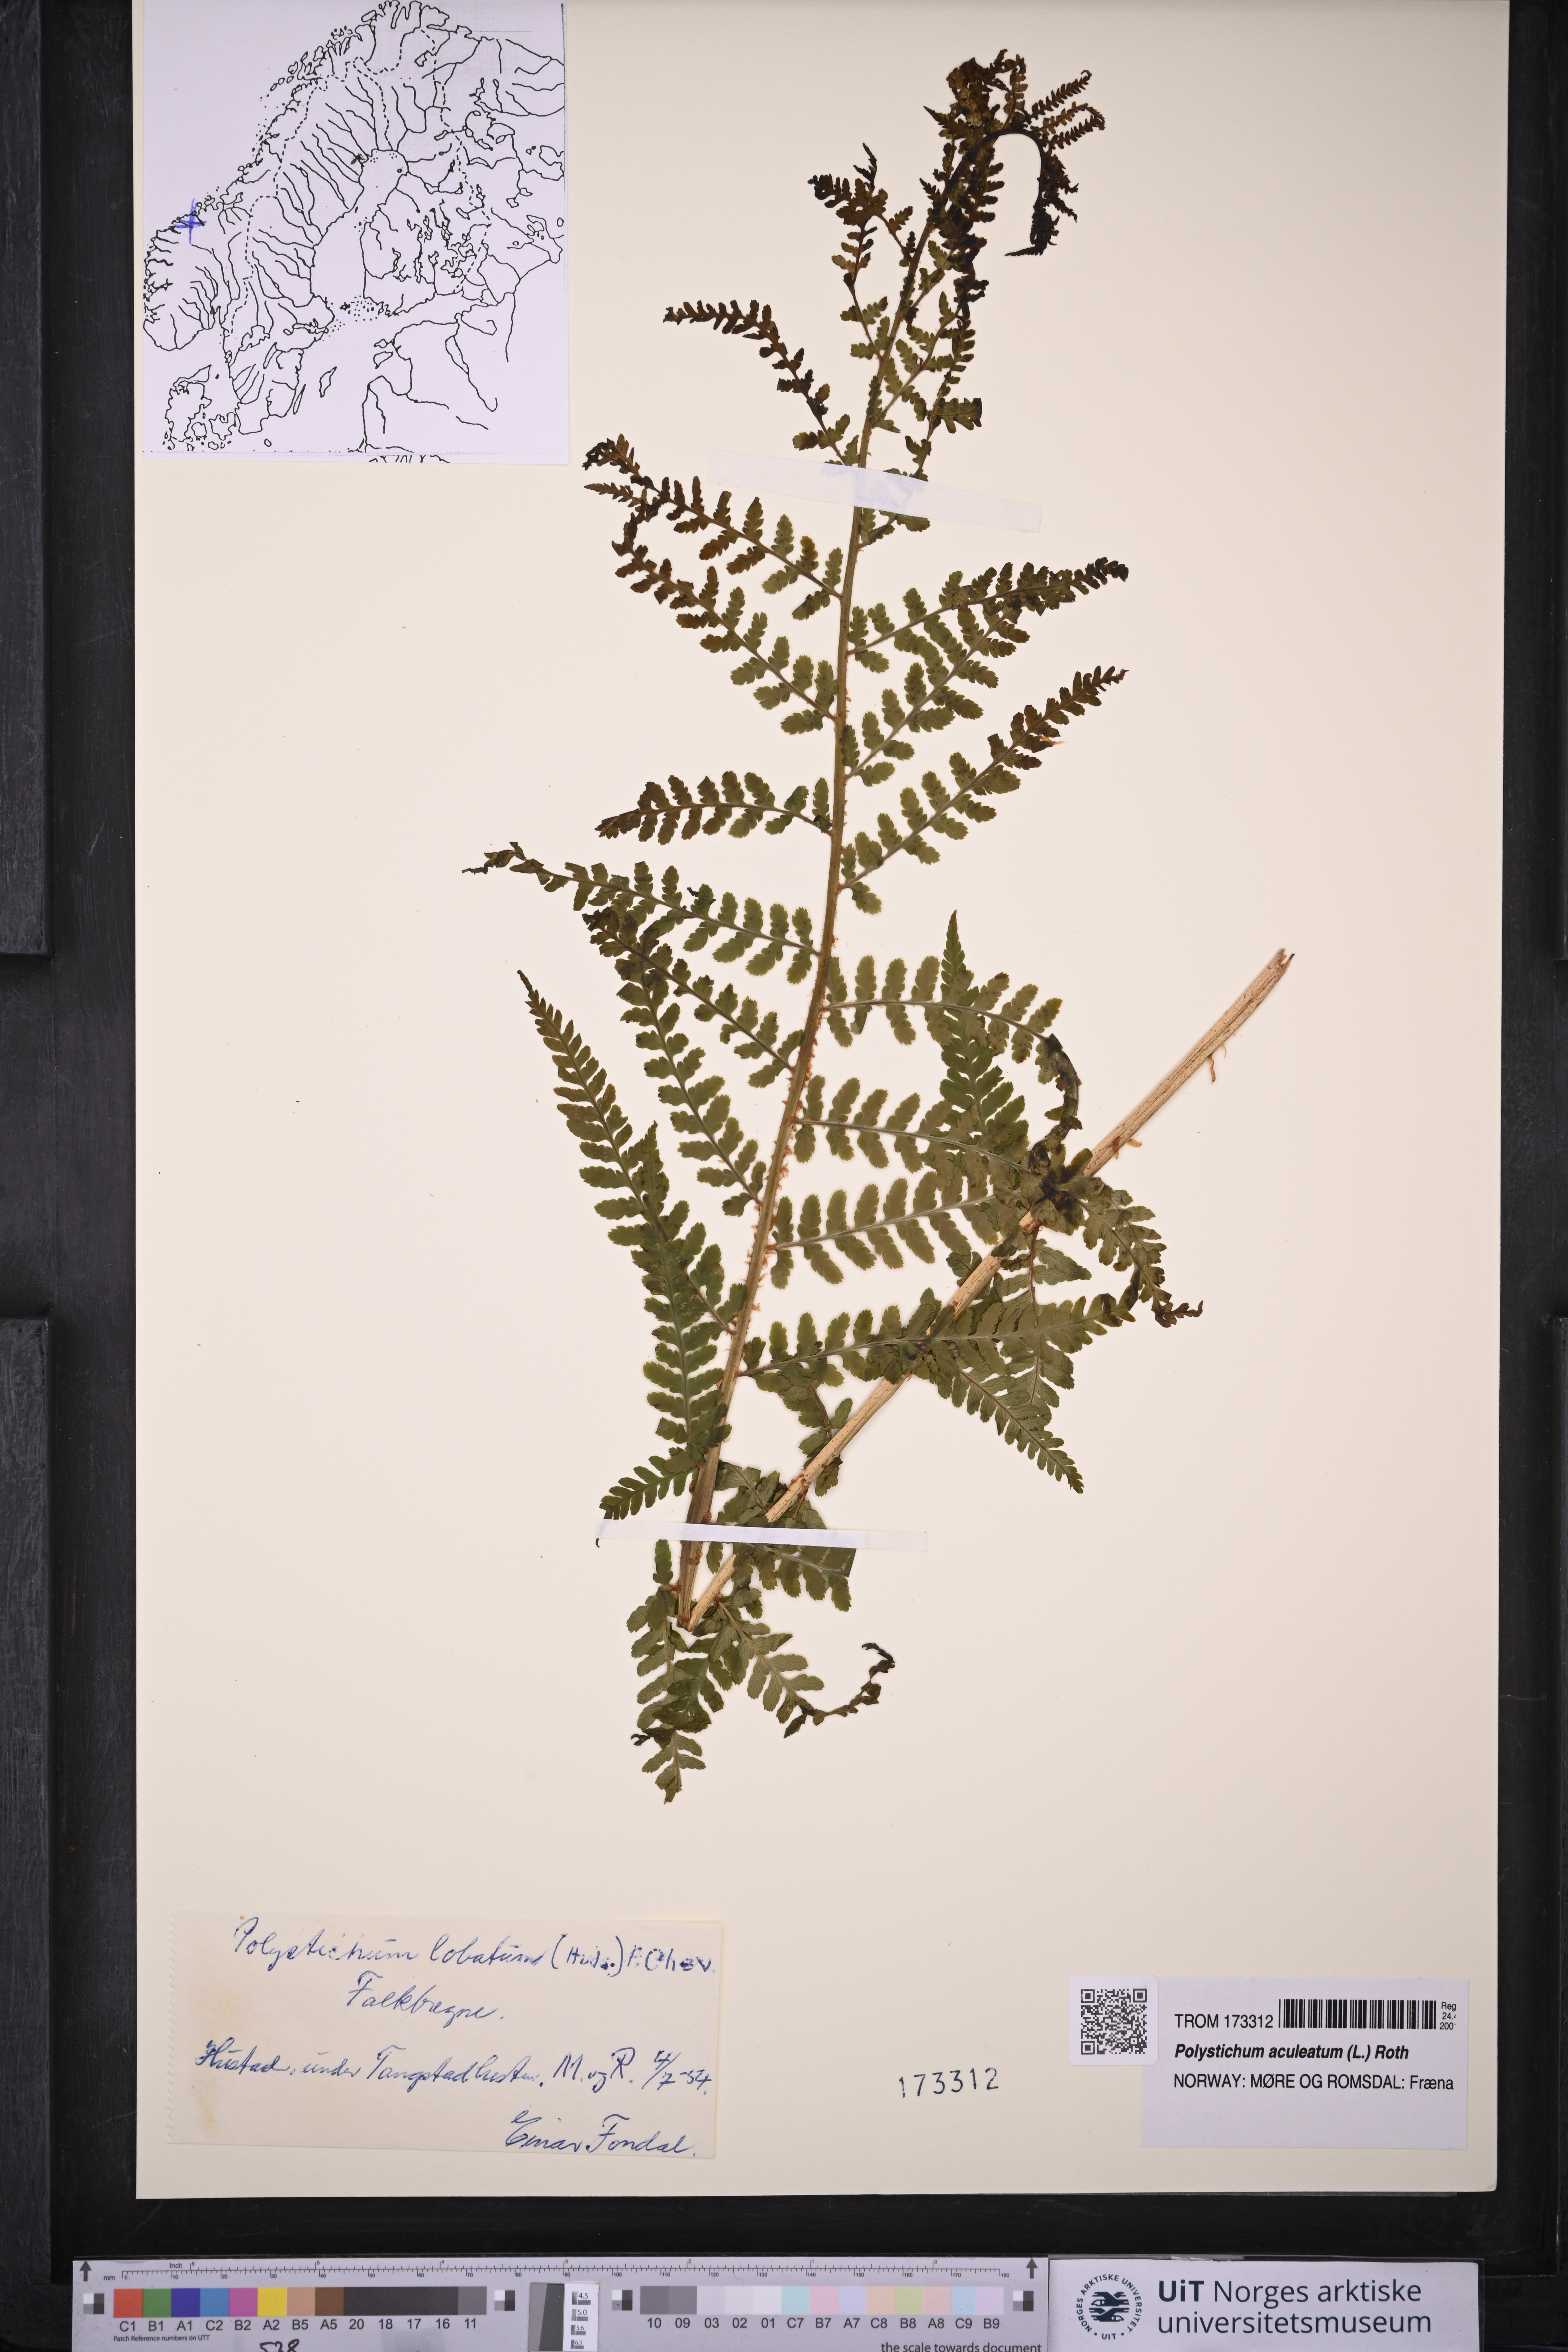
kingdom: Plantae
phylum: Tracheophyta
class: Polypodiopsida
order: Polypodiales
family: Dryopteridaceae
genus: Polystichum
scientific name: Polystichum aculeatum
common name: Hard shield-fern
